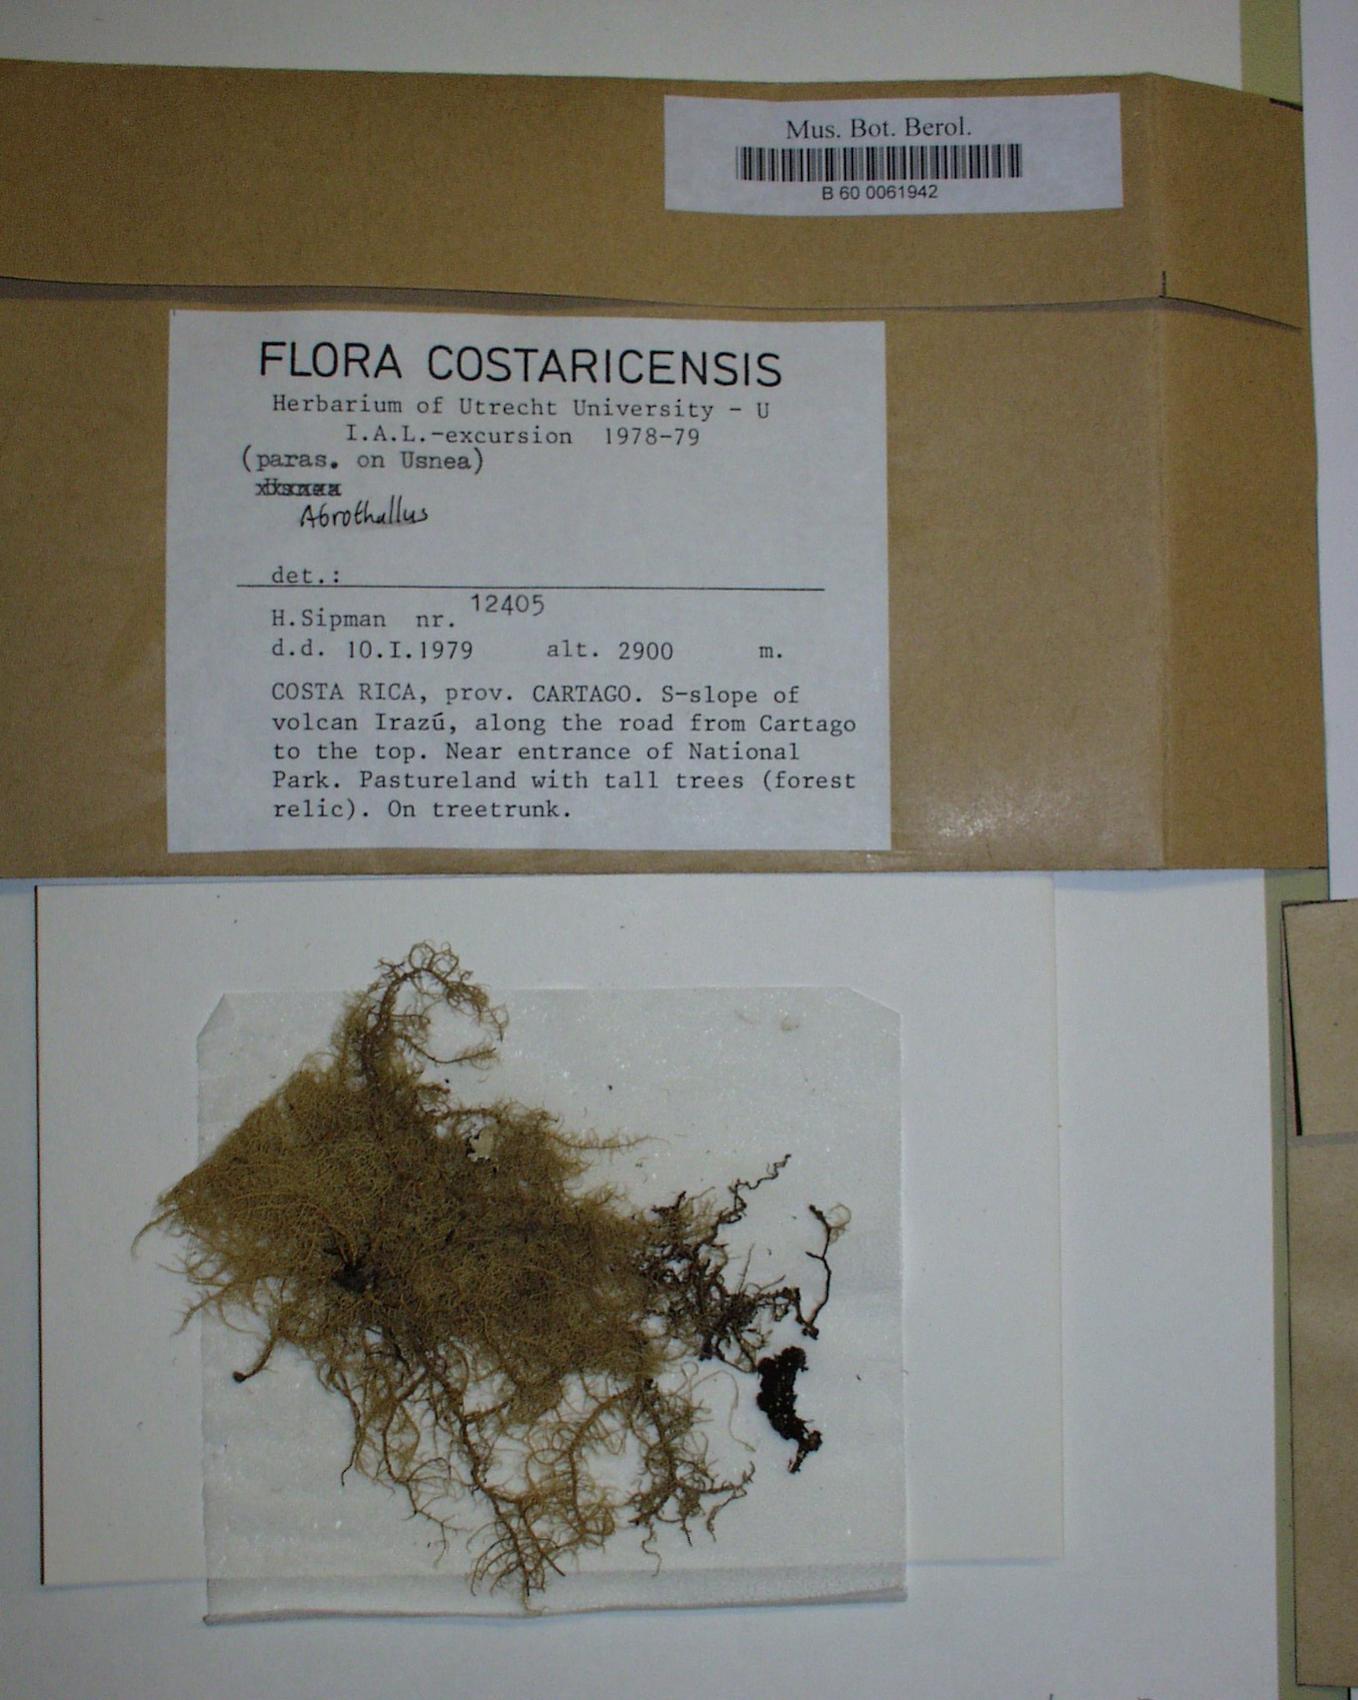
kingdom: Fungi
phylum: Ascomycota
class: Dothideomycetes
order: Pleosporales
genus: Abrothallus
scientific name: Abrothallus
